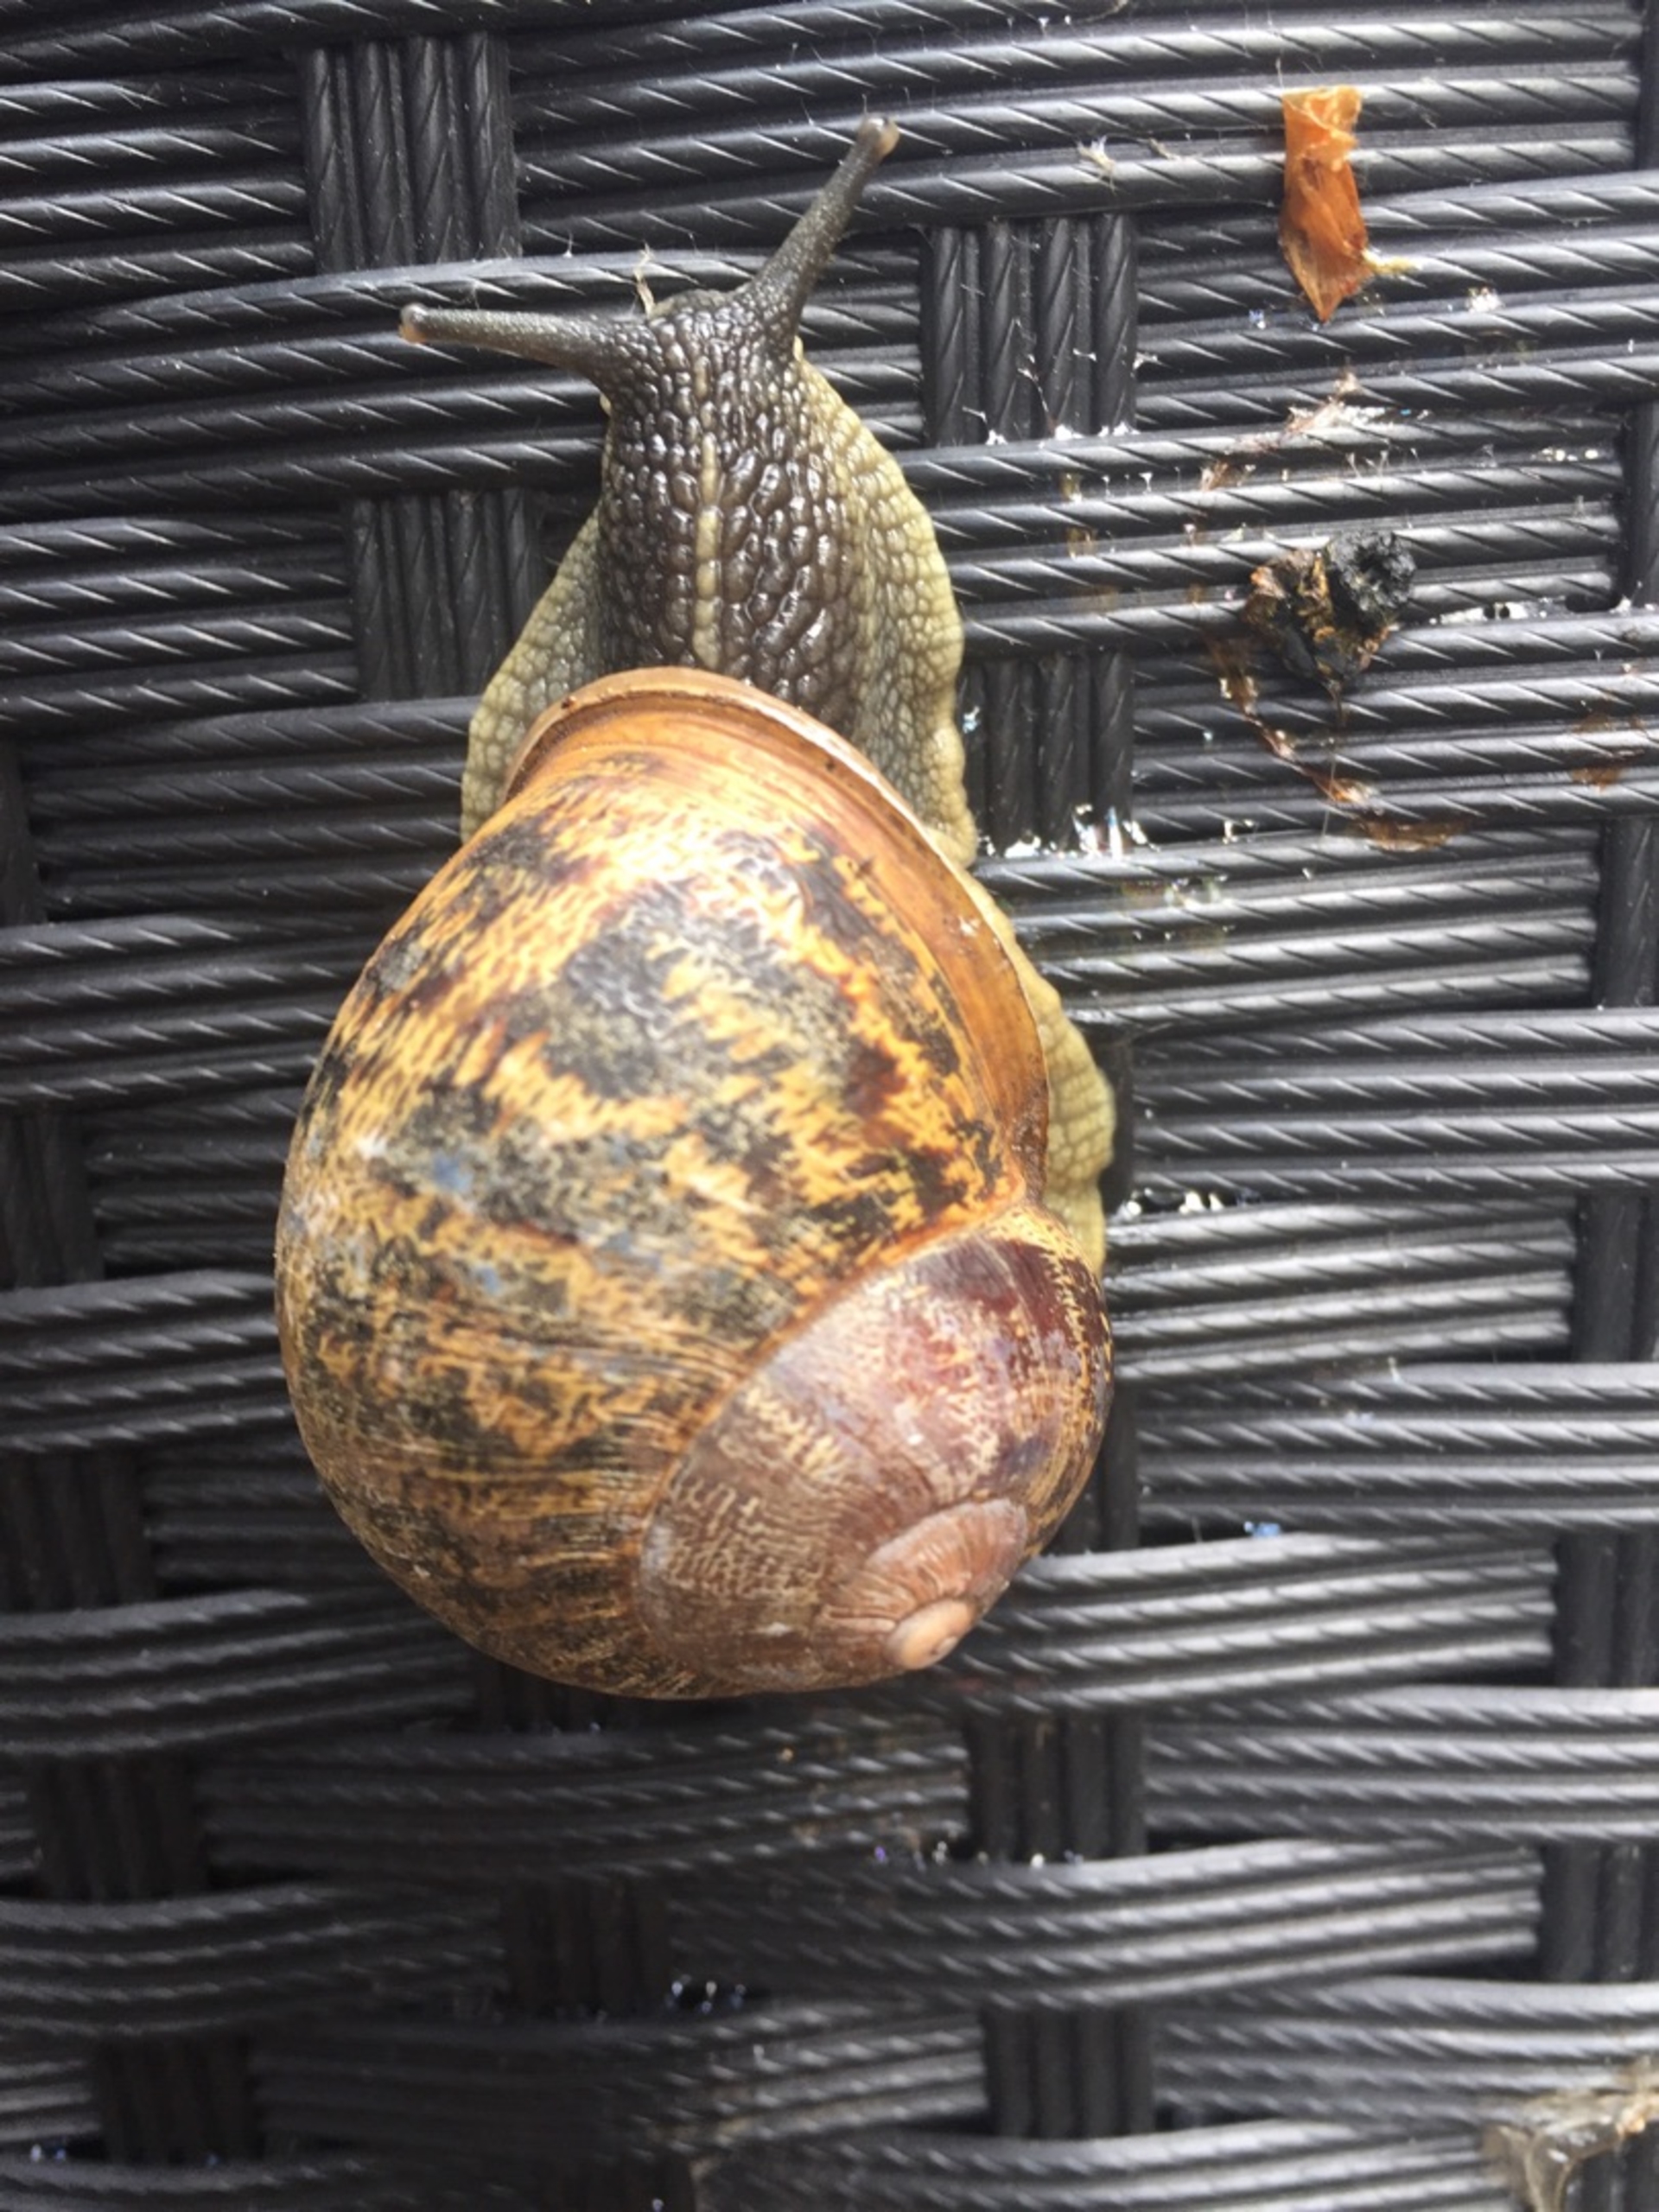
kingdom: Animalia
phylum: Mollusca
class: Gastropoda
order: Stylommatophora
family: Helicidae
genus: Cornu
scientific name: Cornu aspersum
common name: Plettet voldsnegl
